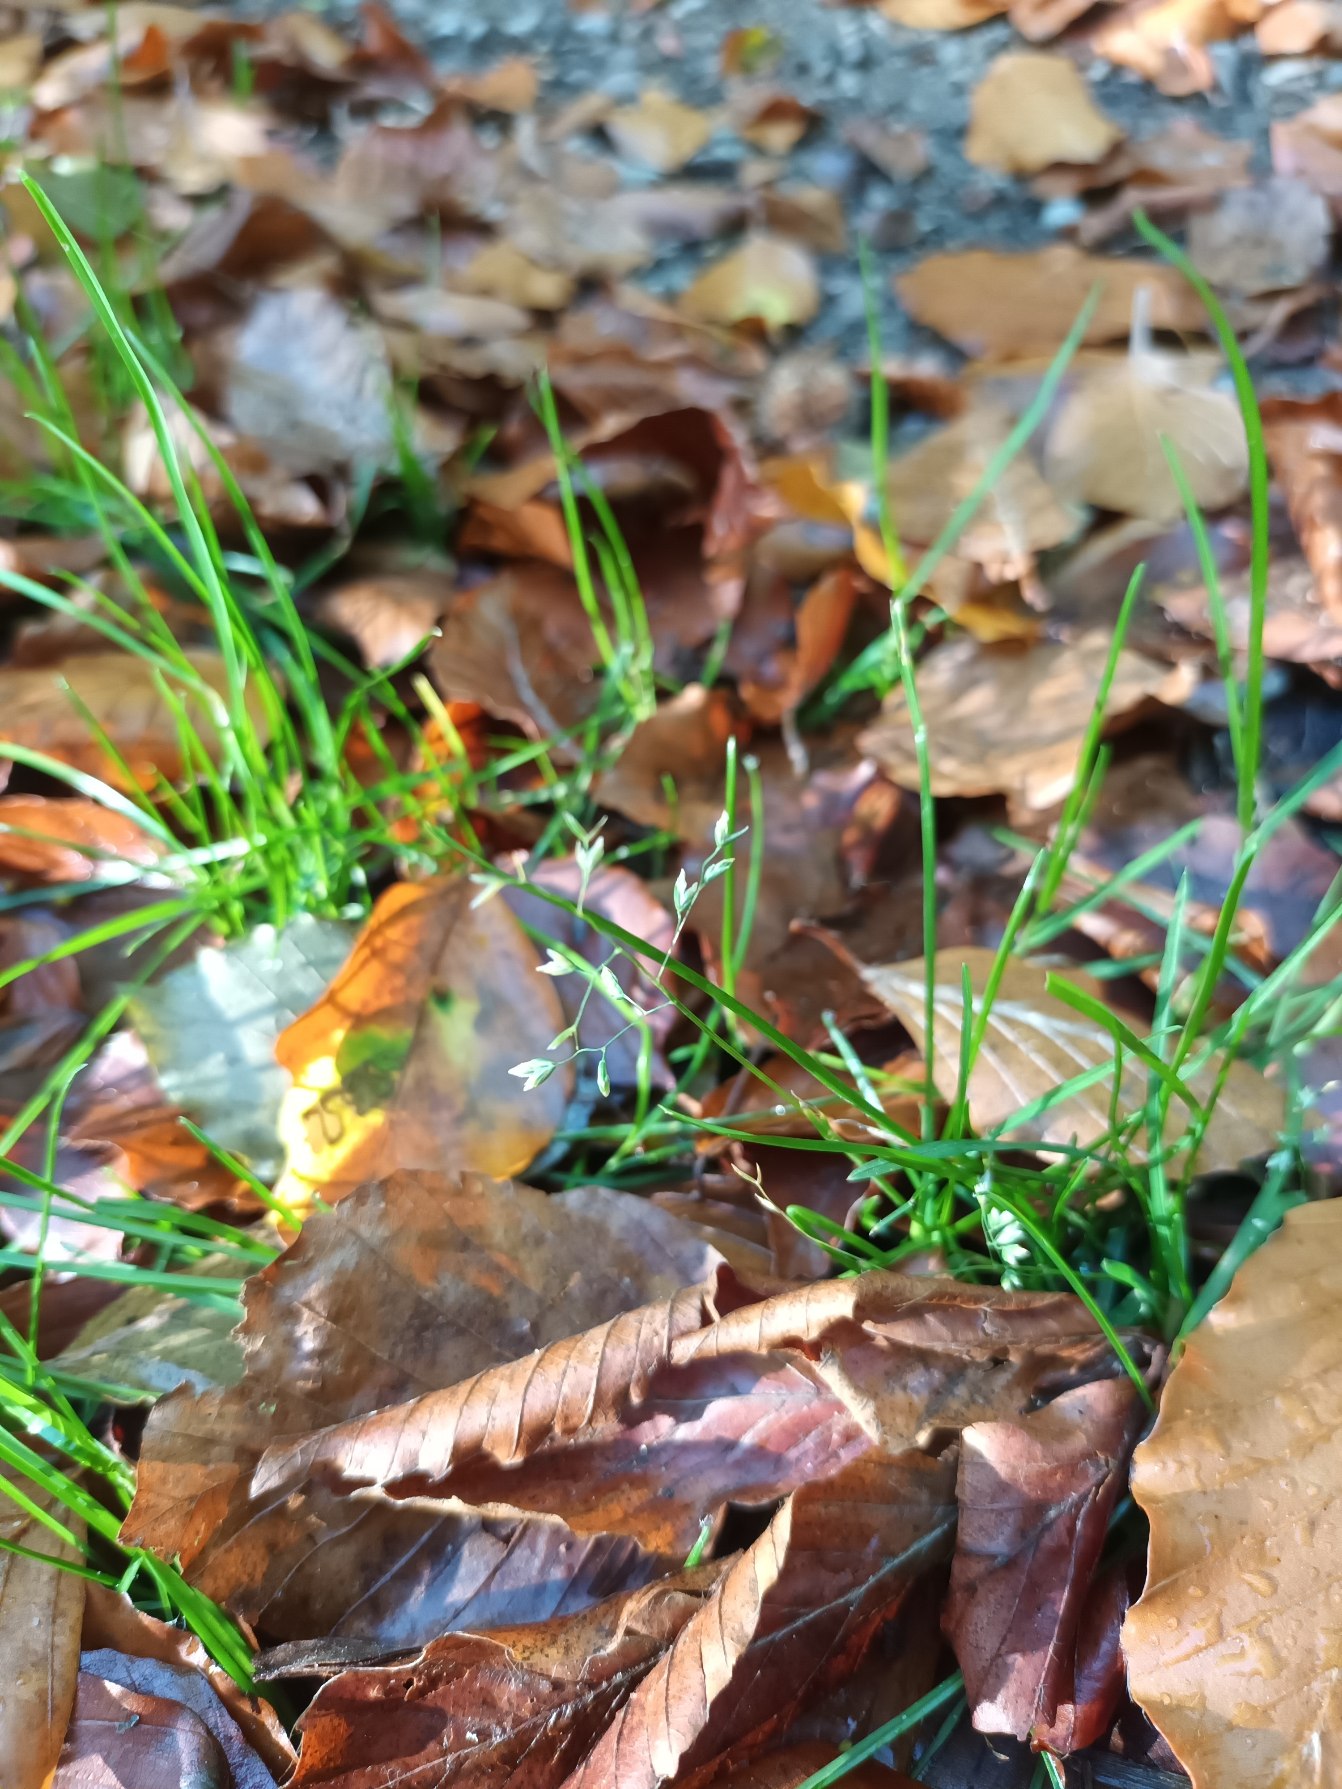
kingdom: Plantae
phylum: Tracheophyta
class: Liliopsida
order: Poales
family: Poaceae
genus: Poa
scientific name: Poa annua
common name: Enårig rapgræs
